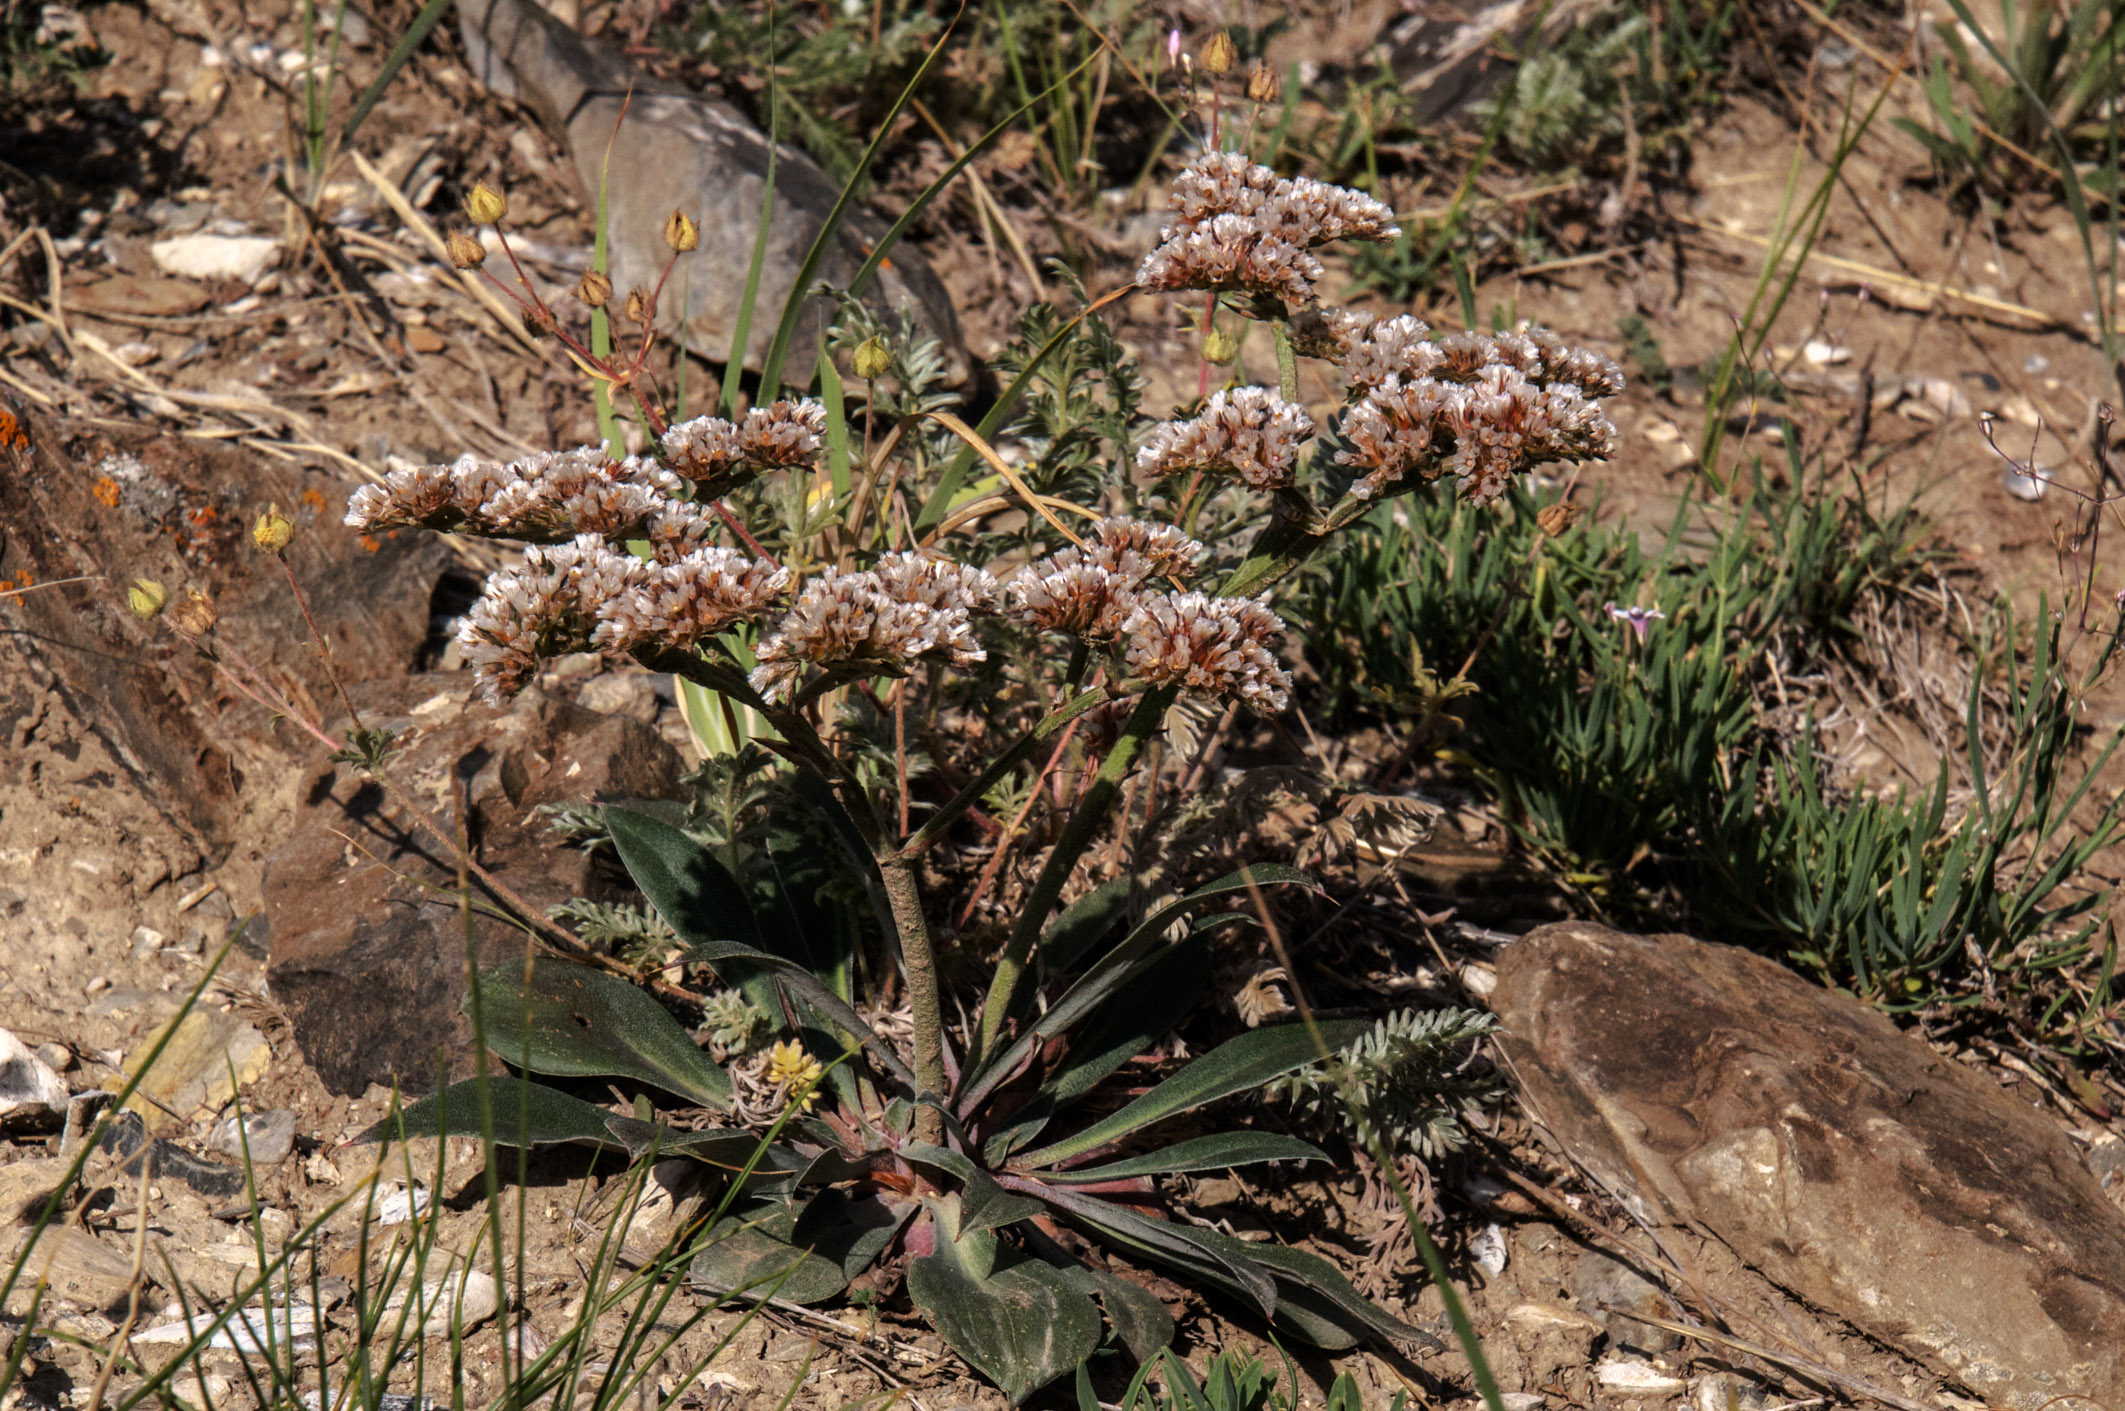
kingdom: Plantae
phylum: Tracheophyta
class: Magnoliopsida
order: Caryophyllales
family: Plumbaginaceae
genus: Goniolimon
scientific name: Goniolimon speciosum
